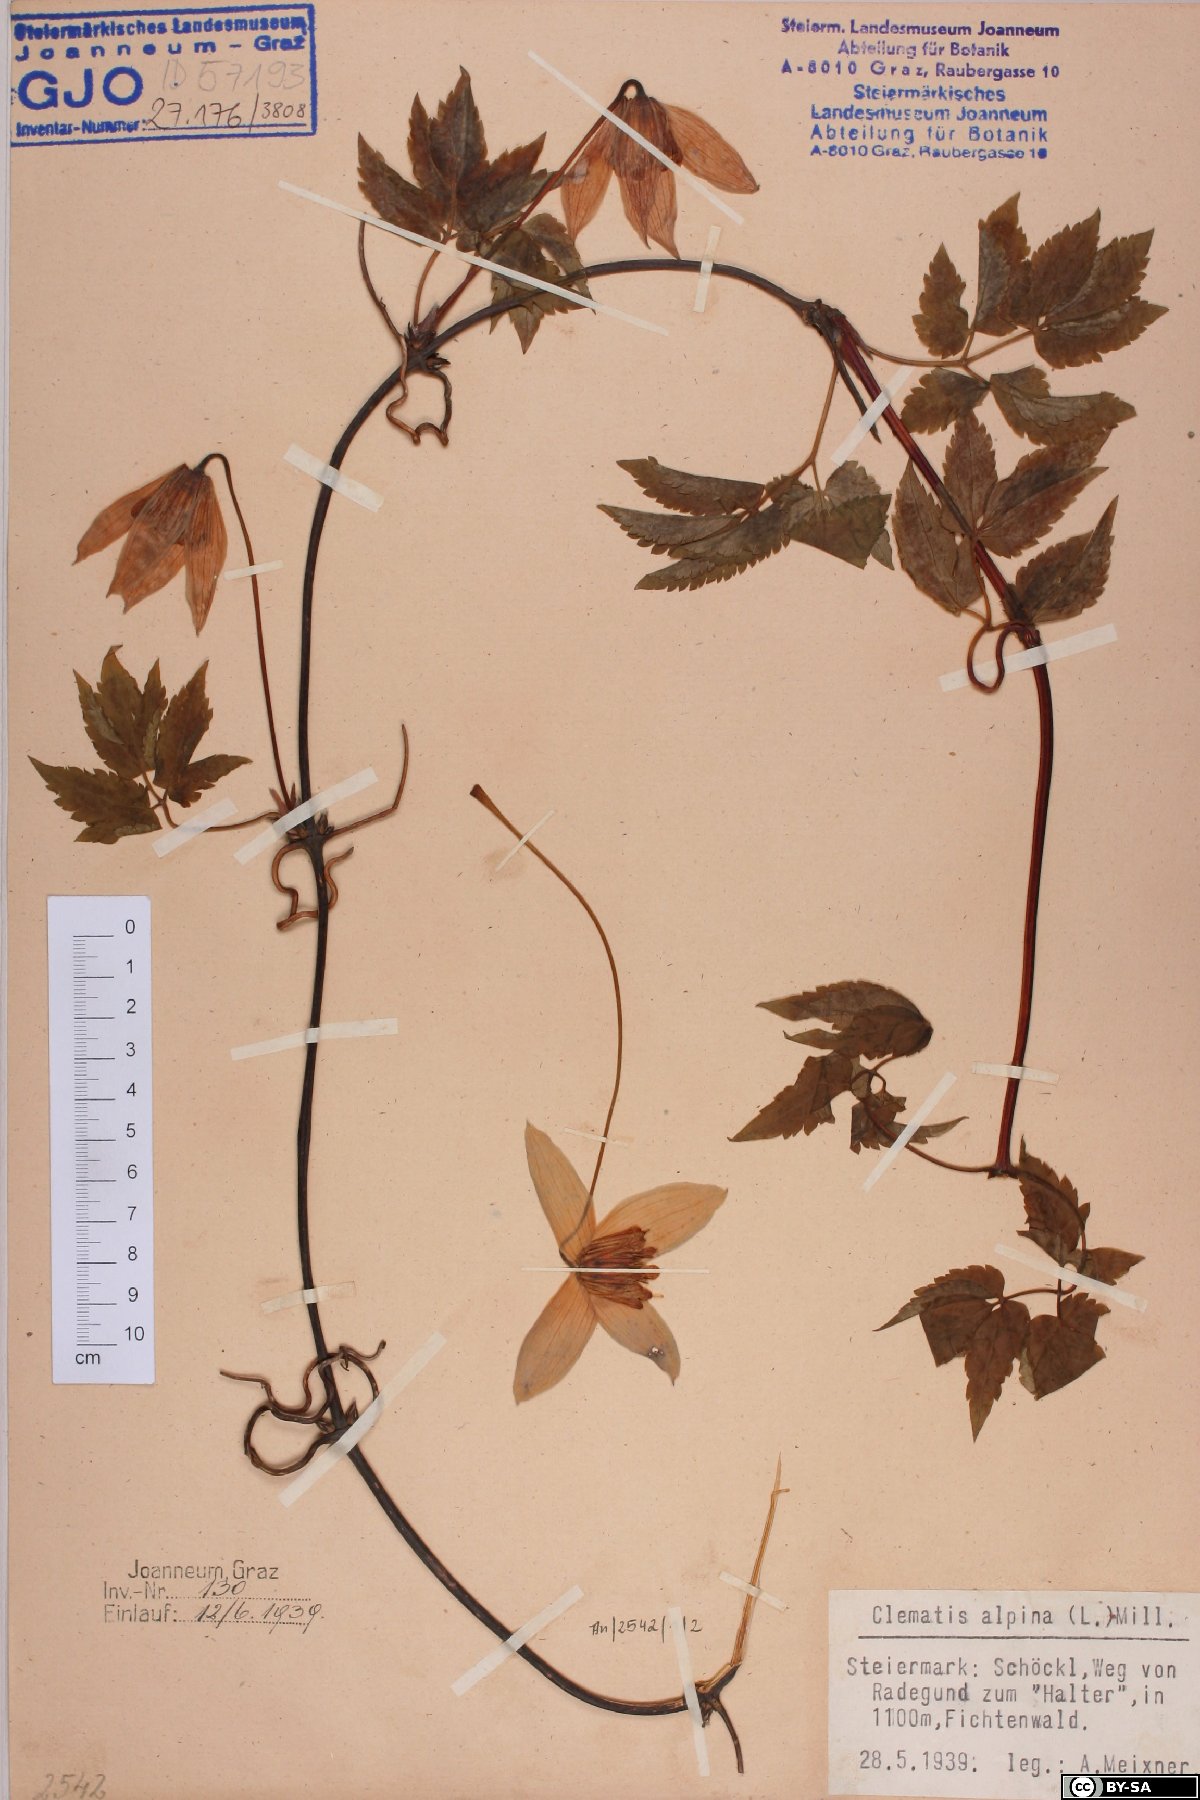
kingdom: Plantae
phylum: Tracheophyta
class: Magnoliopsida
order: Ranunculales
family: Ranunculaceae
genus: Clematis
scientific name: Clematis alpina
